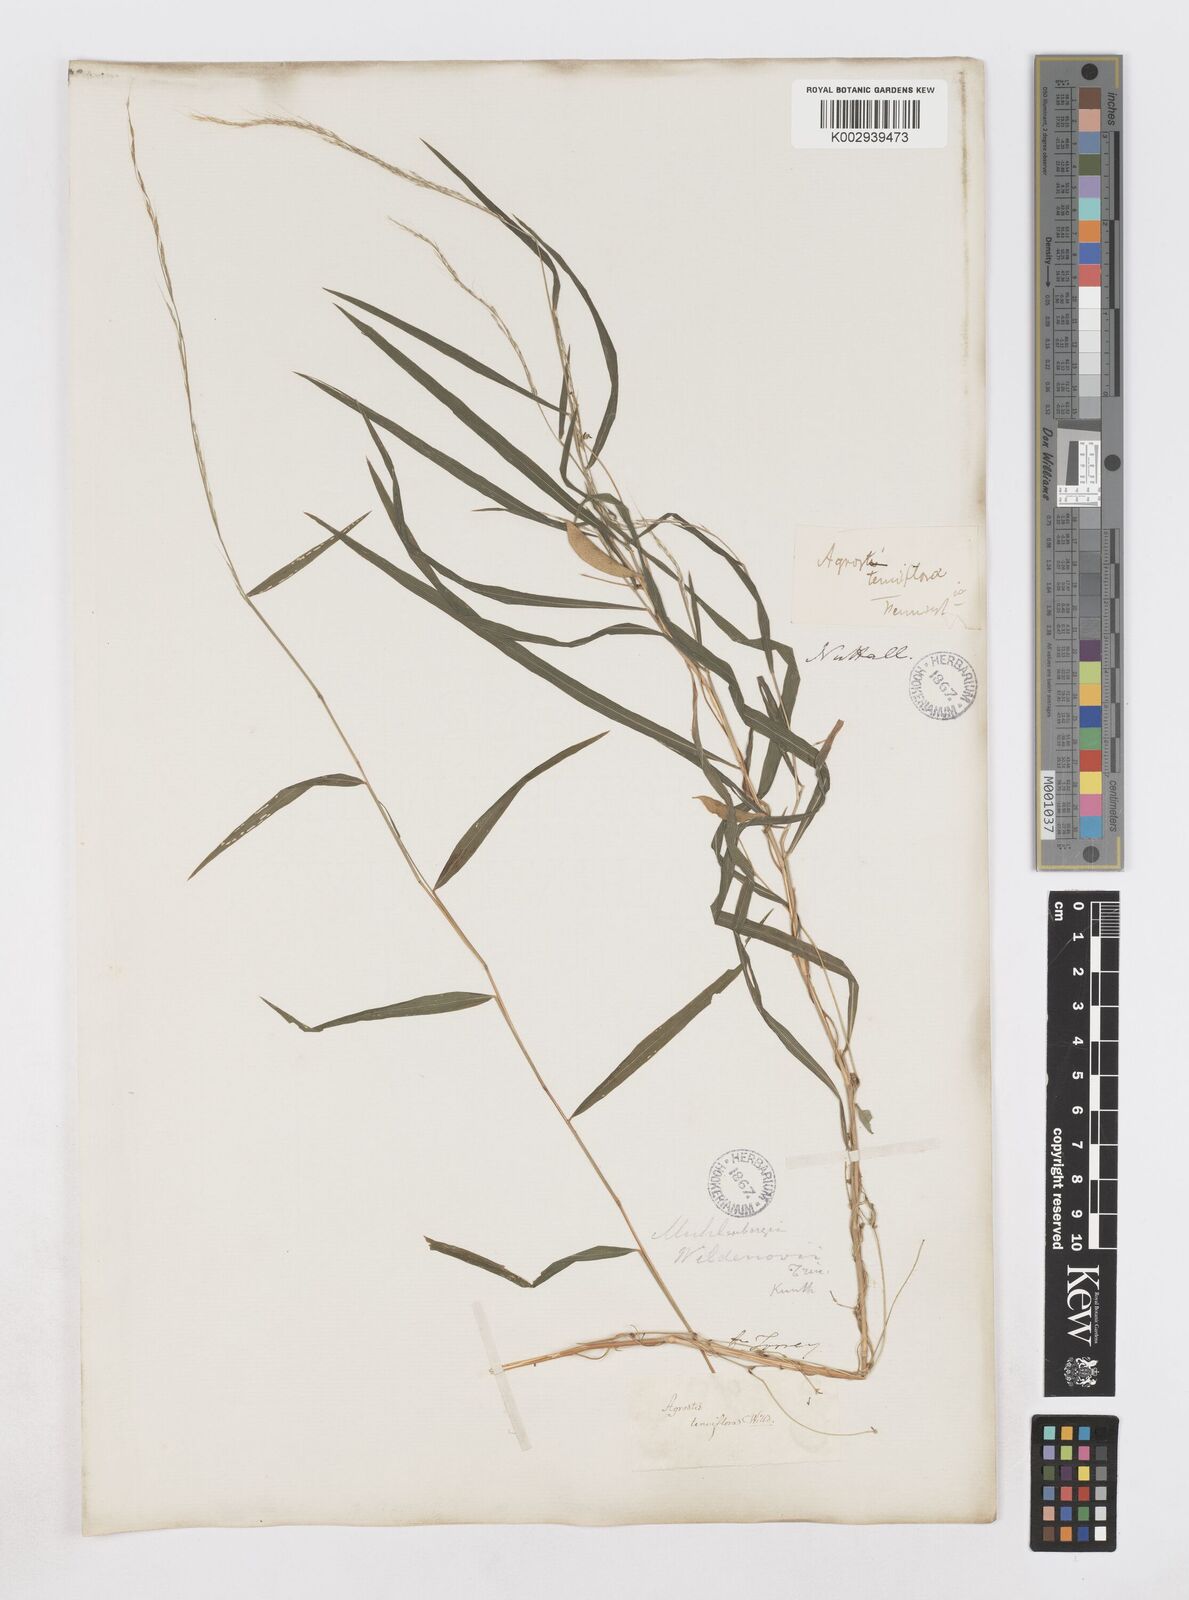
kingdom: Plantae
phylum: Tracheophyta
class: Liliopsida
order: Poales
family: Poaceae
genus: Muhlenbergia
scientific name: Muhlenbergia tenuiflora
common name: Slender muhly
